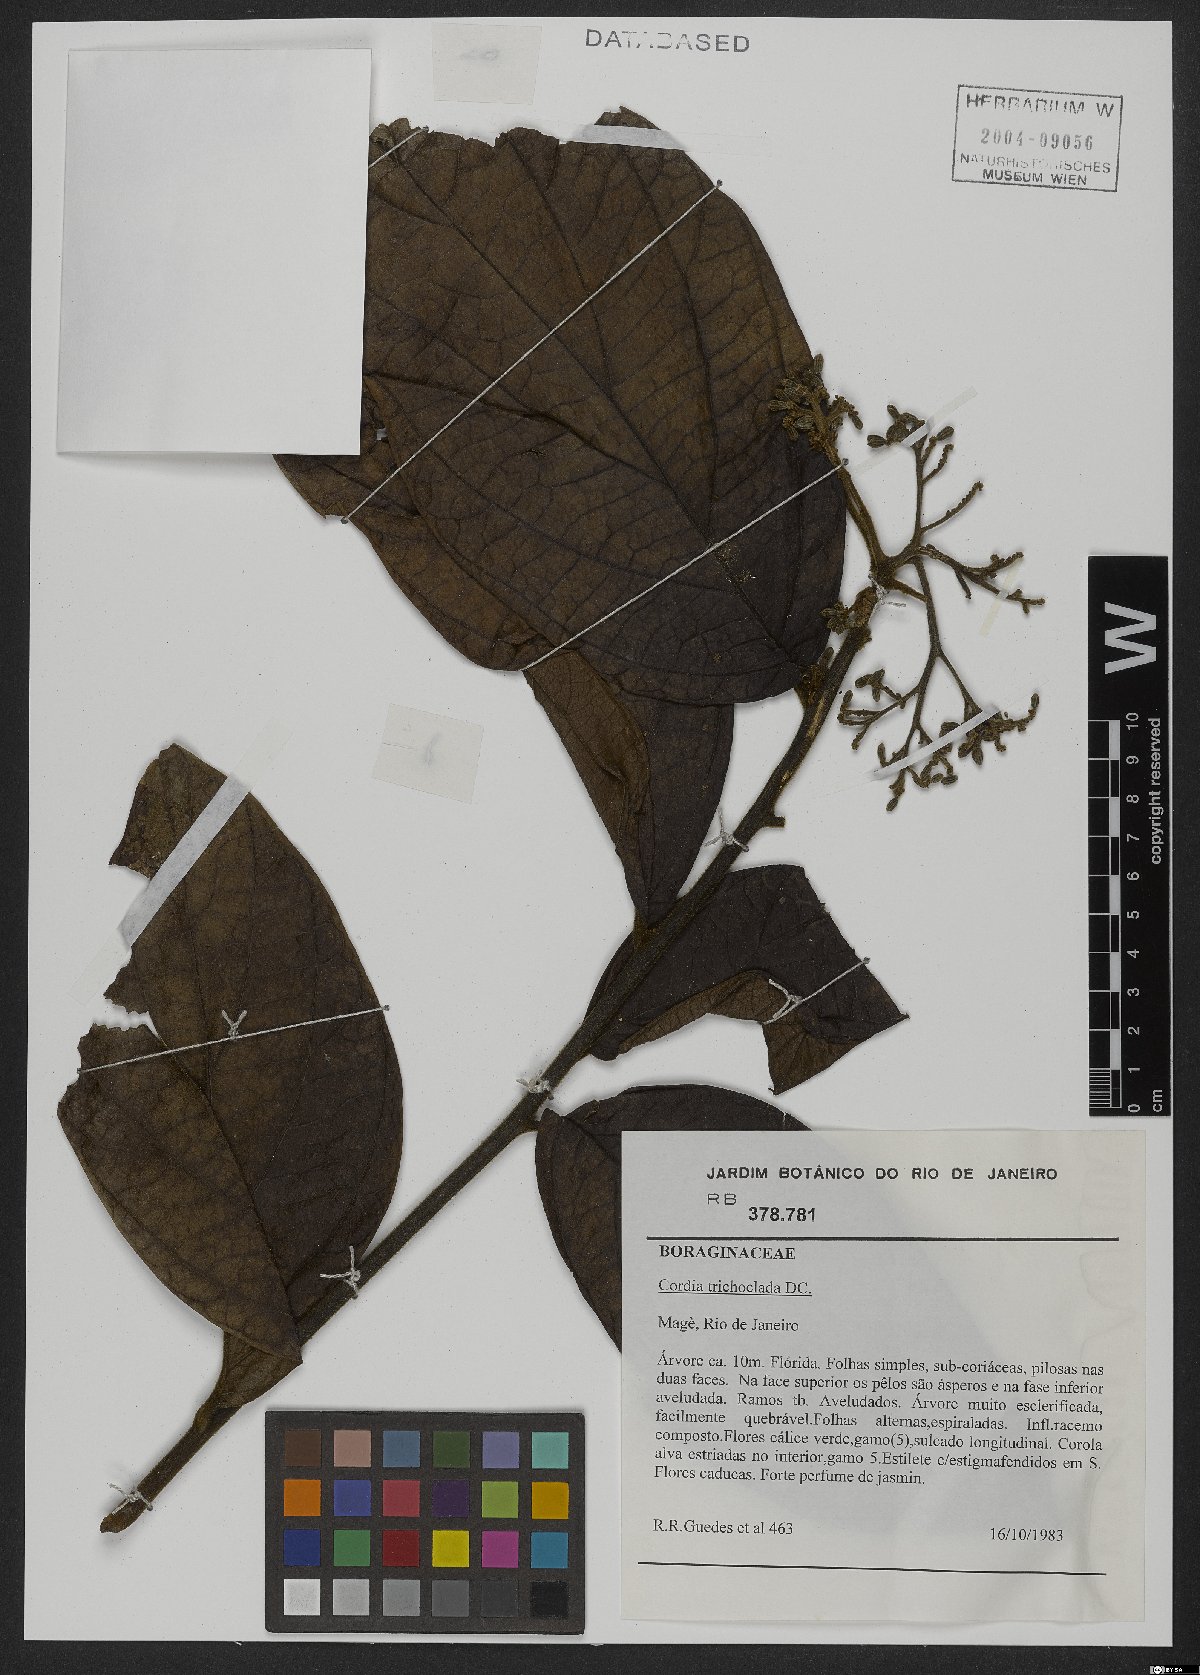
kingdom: Plantae
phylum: Tracheophyta
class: Magnoliopsida
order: Boraginales
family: Cordiaceae
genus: Cordia
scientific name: Cordia trichoclada
